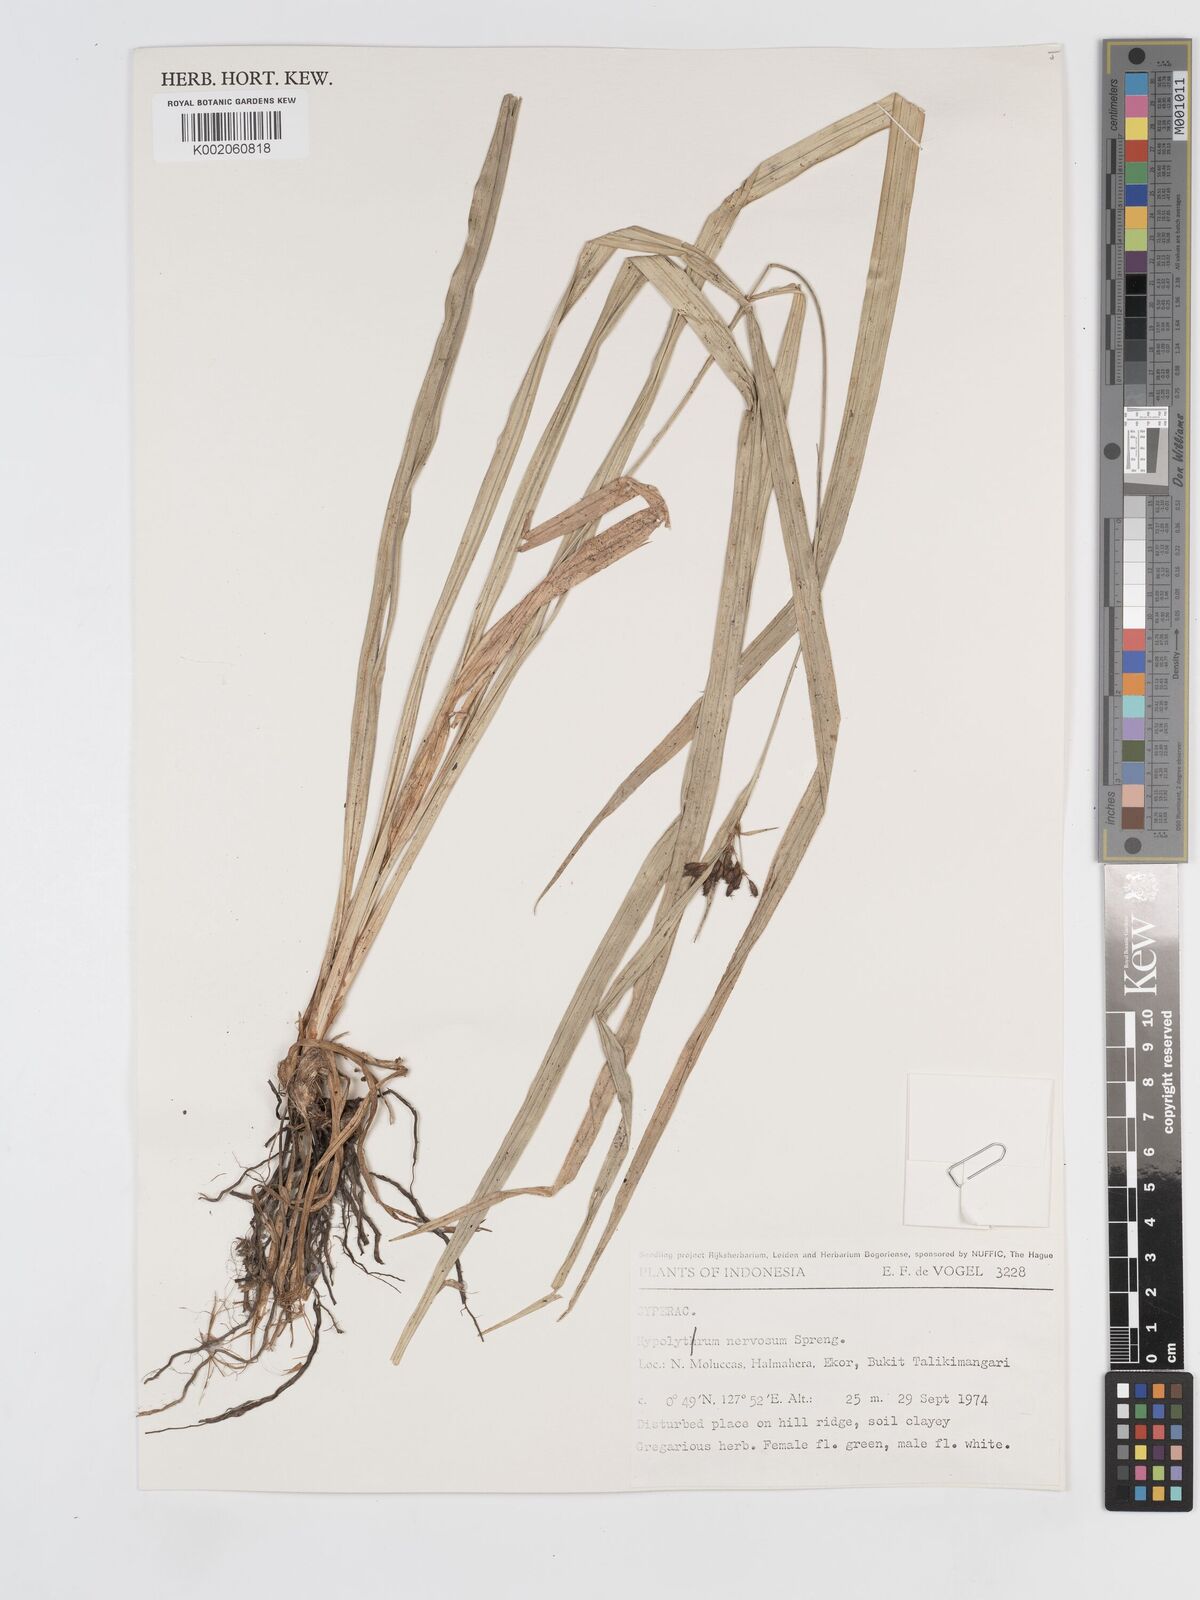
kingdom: Plantae
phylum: Tracheophyta
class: Liliopsida
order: Poales
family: Cyperaceae
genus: Hypolytrum
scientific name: Hypolytrum nemorum
